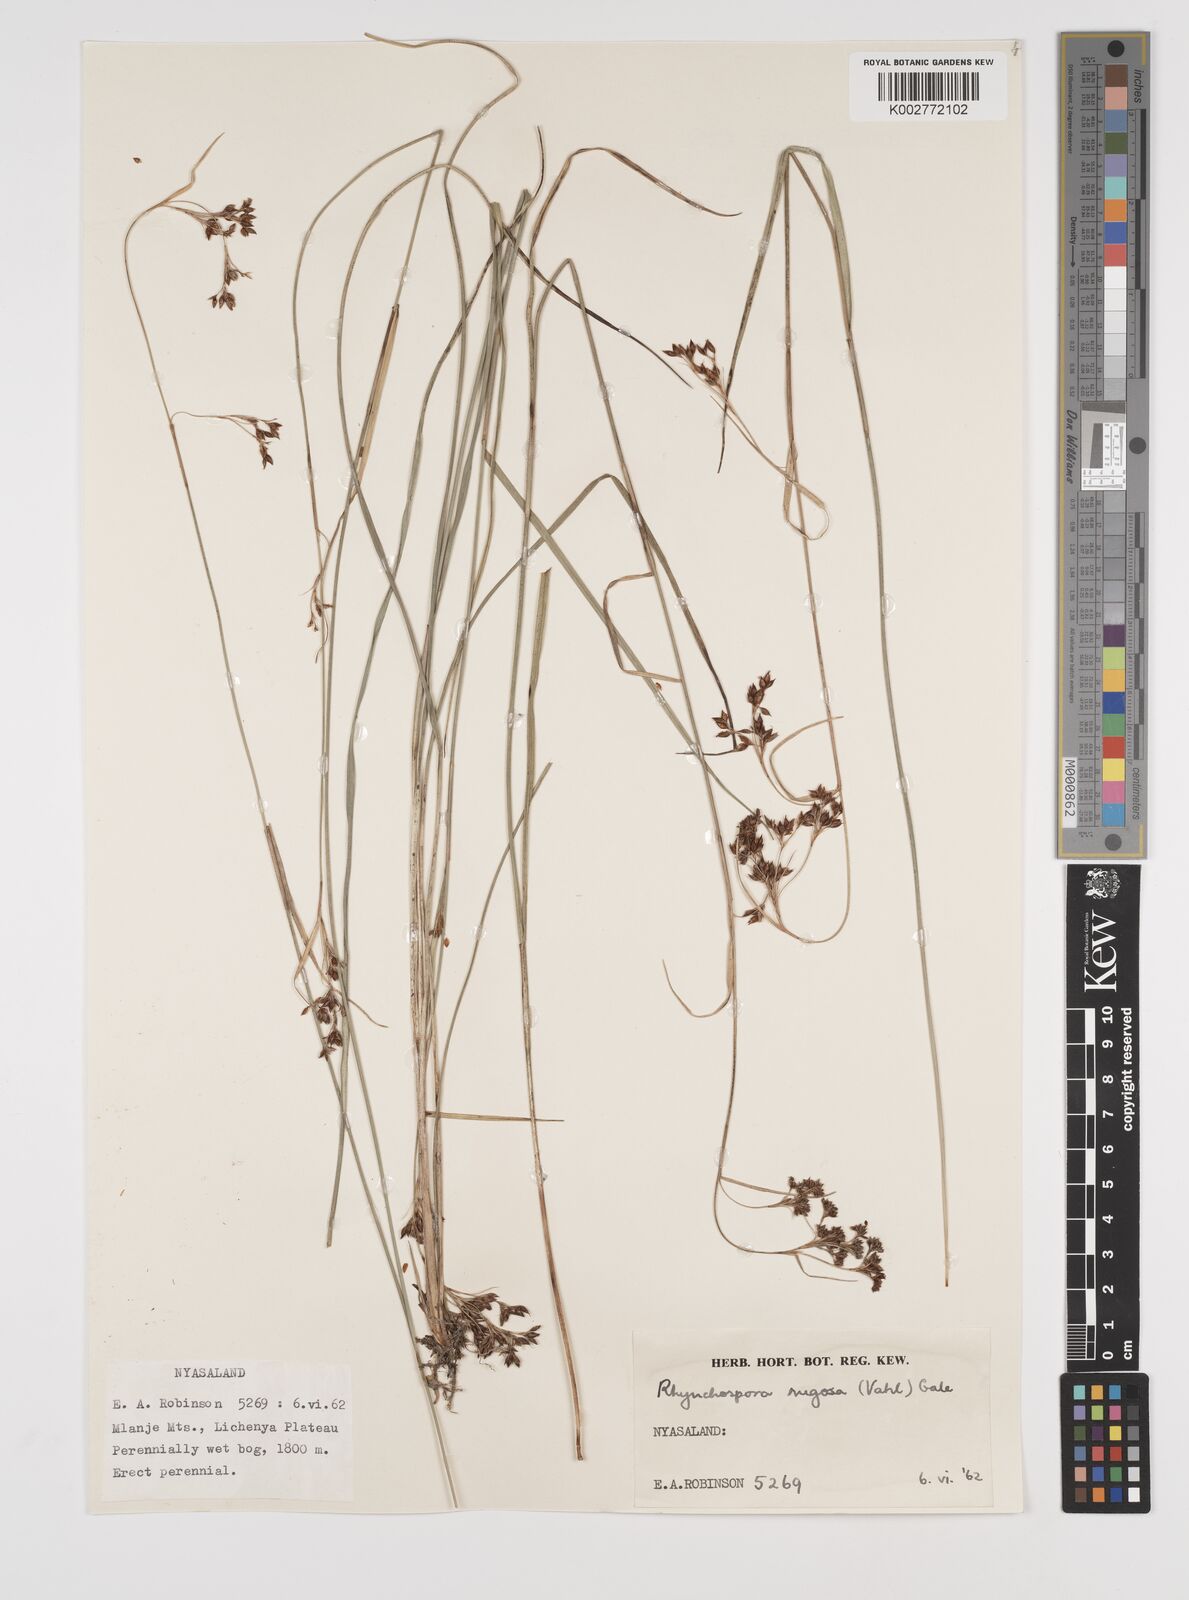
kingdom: Plantae
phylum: Tracheophyta
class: Liliopsida
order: Poales
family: Cyperaceae
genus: Rhynchospora
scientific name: Rhynchospora rugosa
